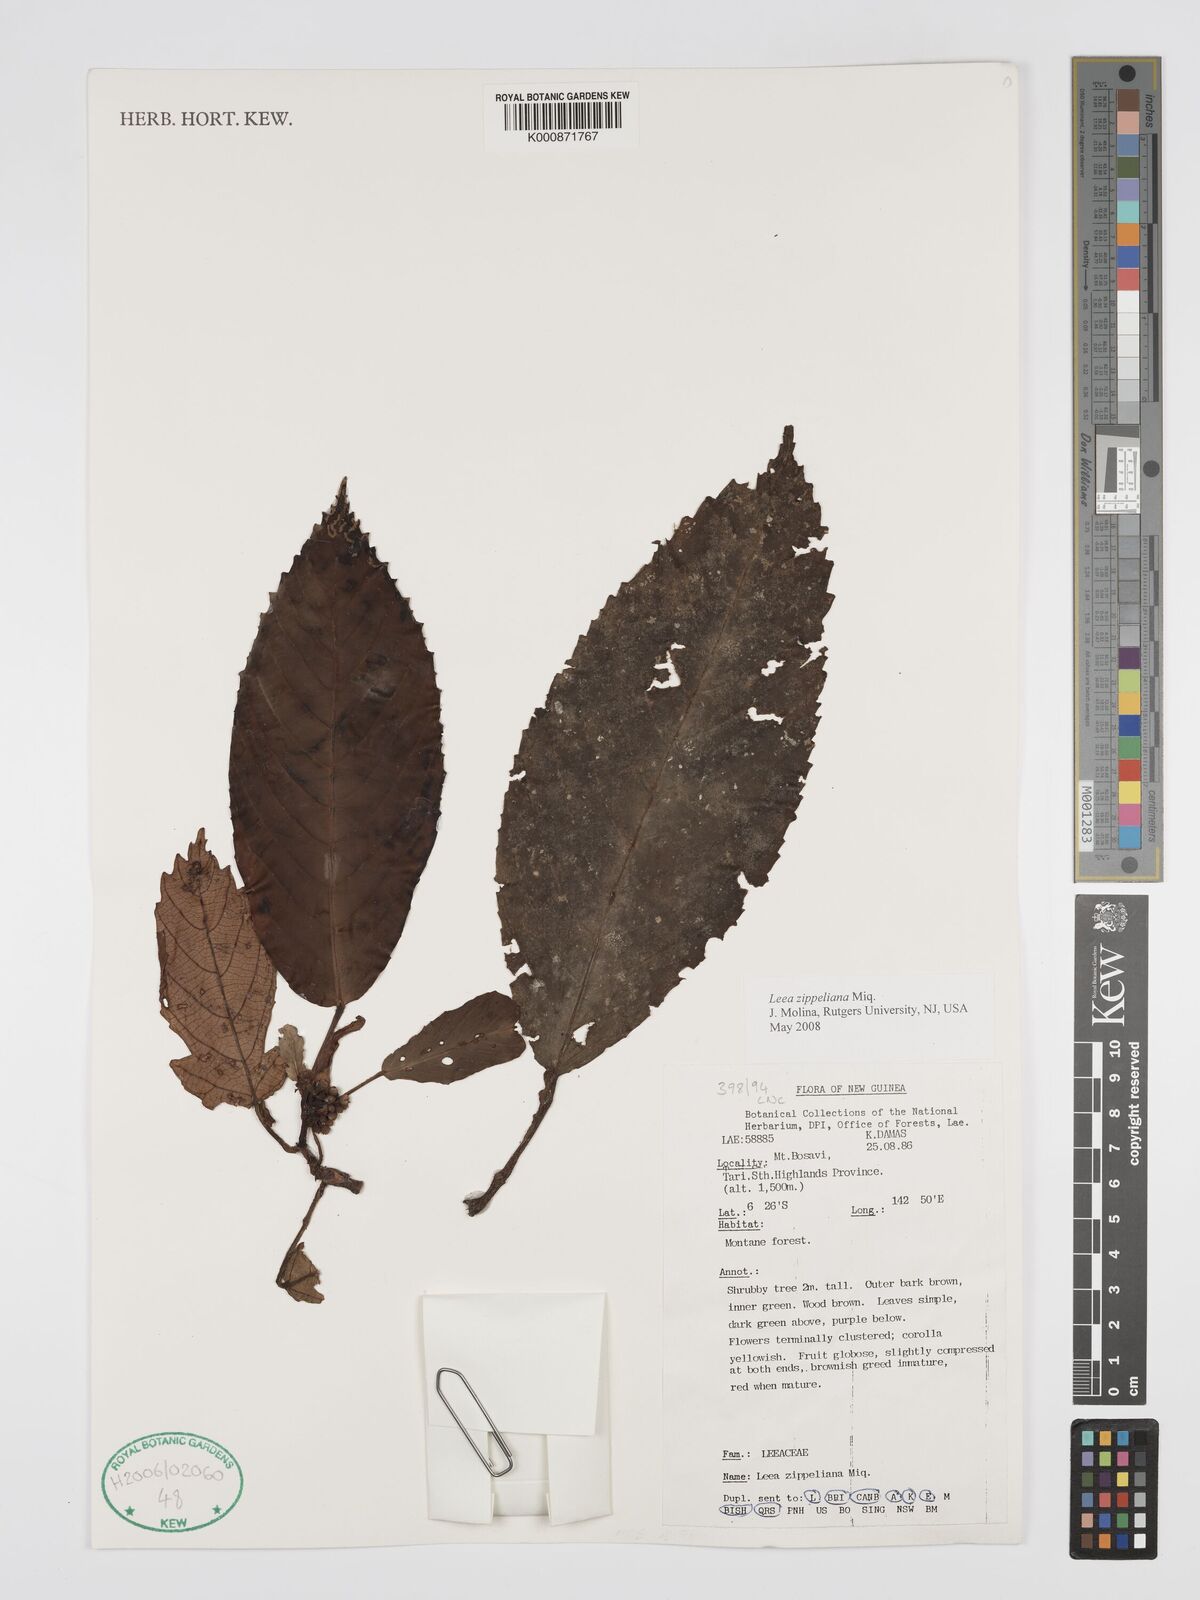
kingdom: Plantae
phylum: Tracheophyta
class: Magnoliopsida
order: Vitales
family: Vitaceae
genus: Leea
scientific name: Leea zippeliana
